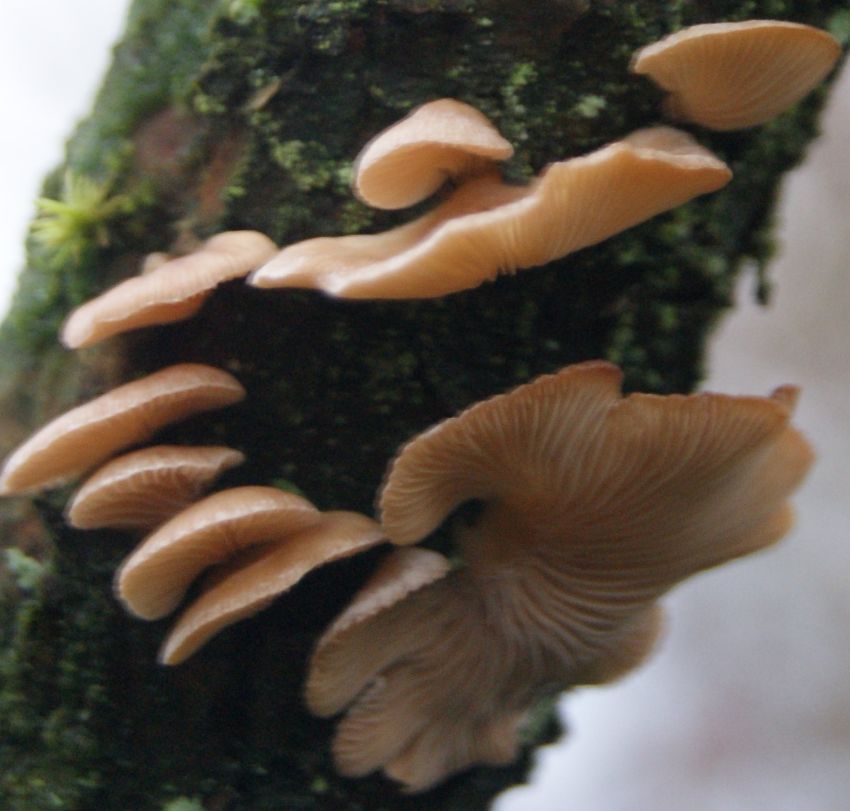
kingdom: Fungi
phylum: Basidiomycota
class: Agaricomycetes
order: Agaricales
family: Mycenaceae
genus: Panellus
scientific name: Panellus mitis
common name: mild epaulethat
